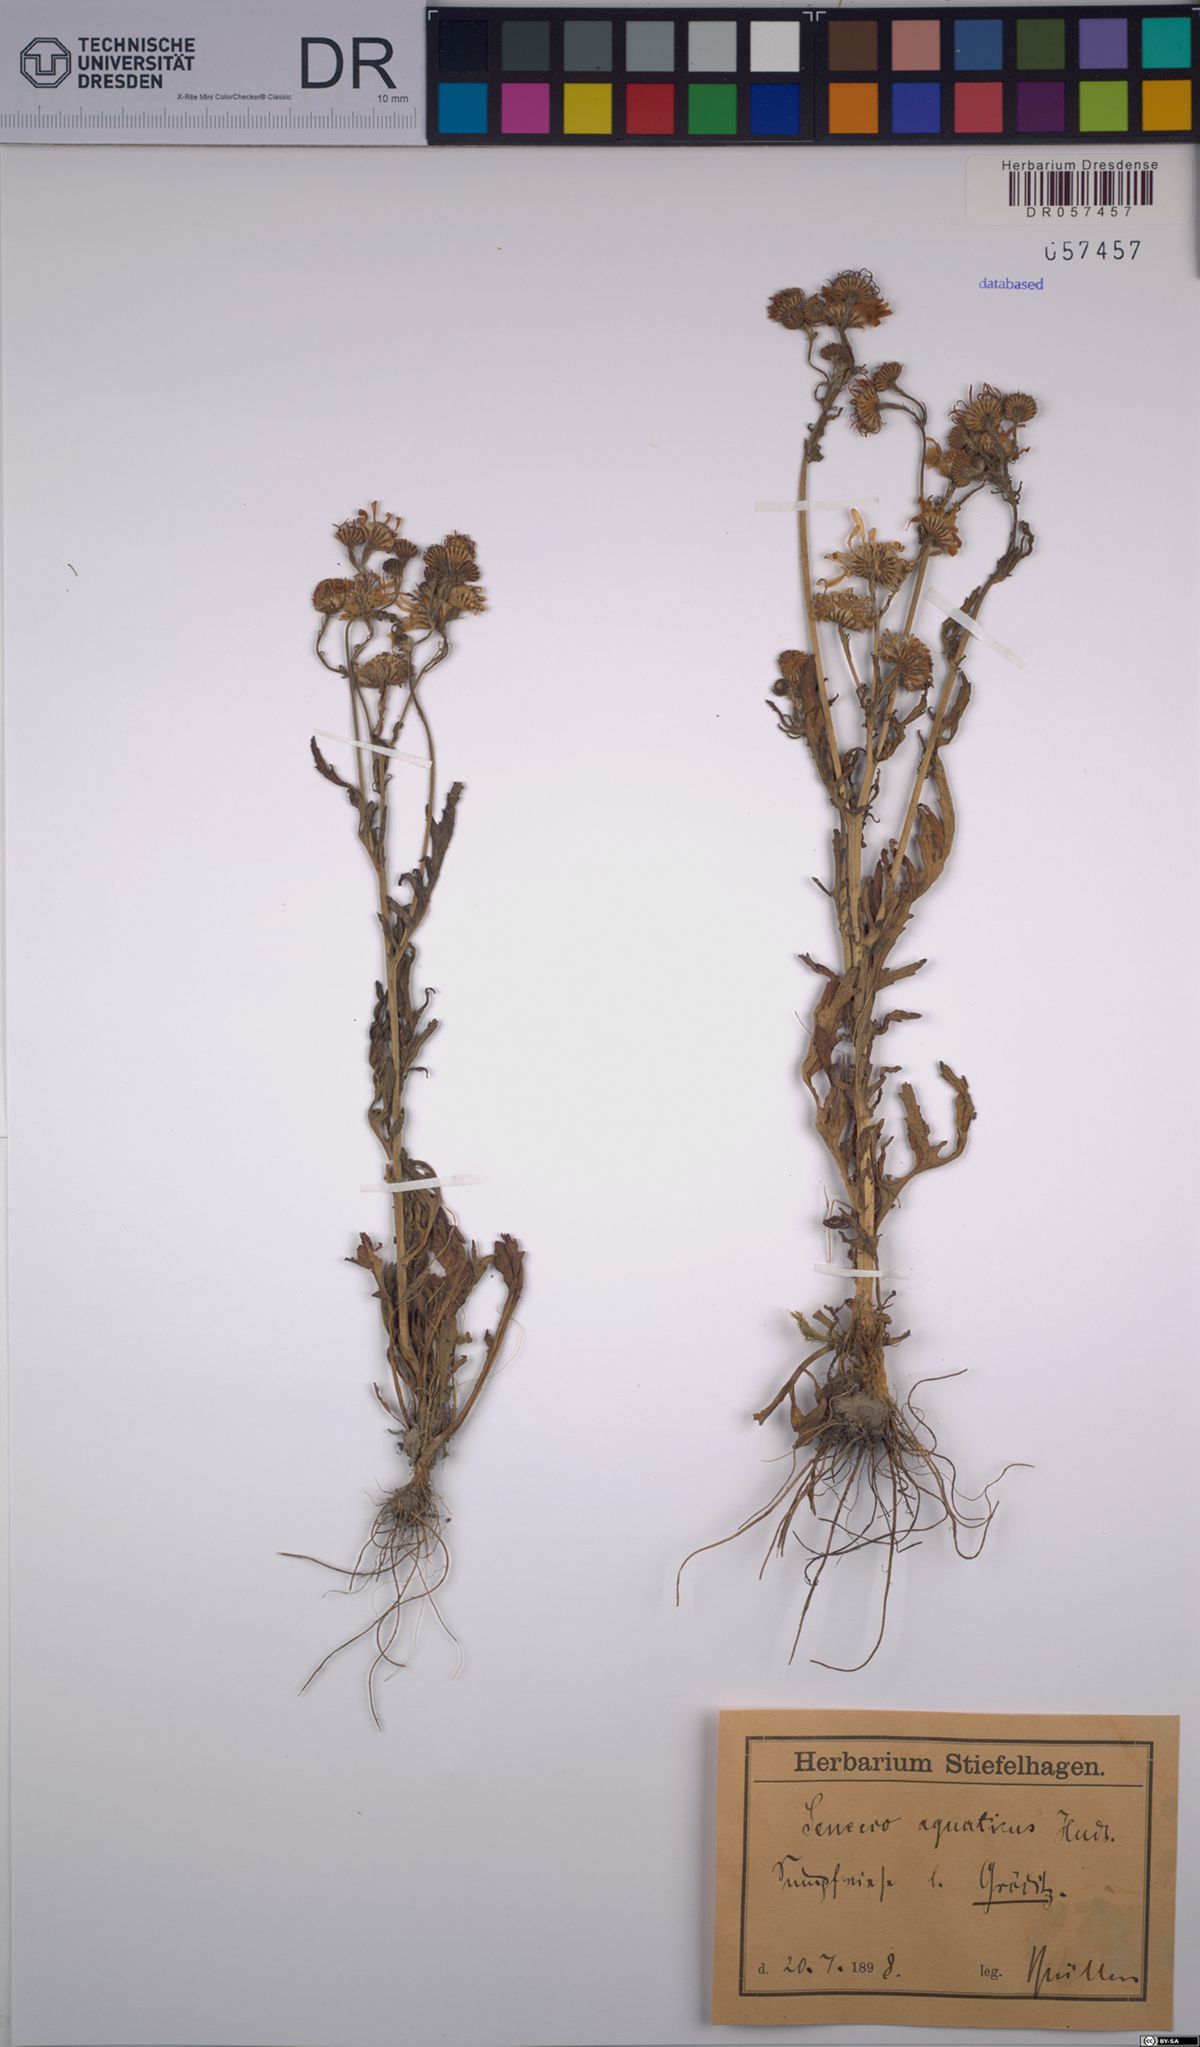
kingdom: Plantae
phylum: Tracheophyta
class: Magnoliopsida
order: Asterales
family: Asteraceae
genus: Jacobaea
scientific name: Jacobaea aquatica
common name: Water ragwort
